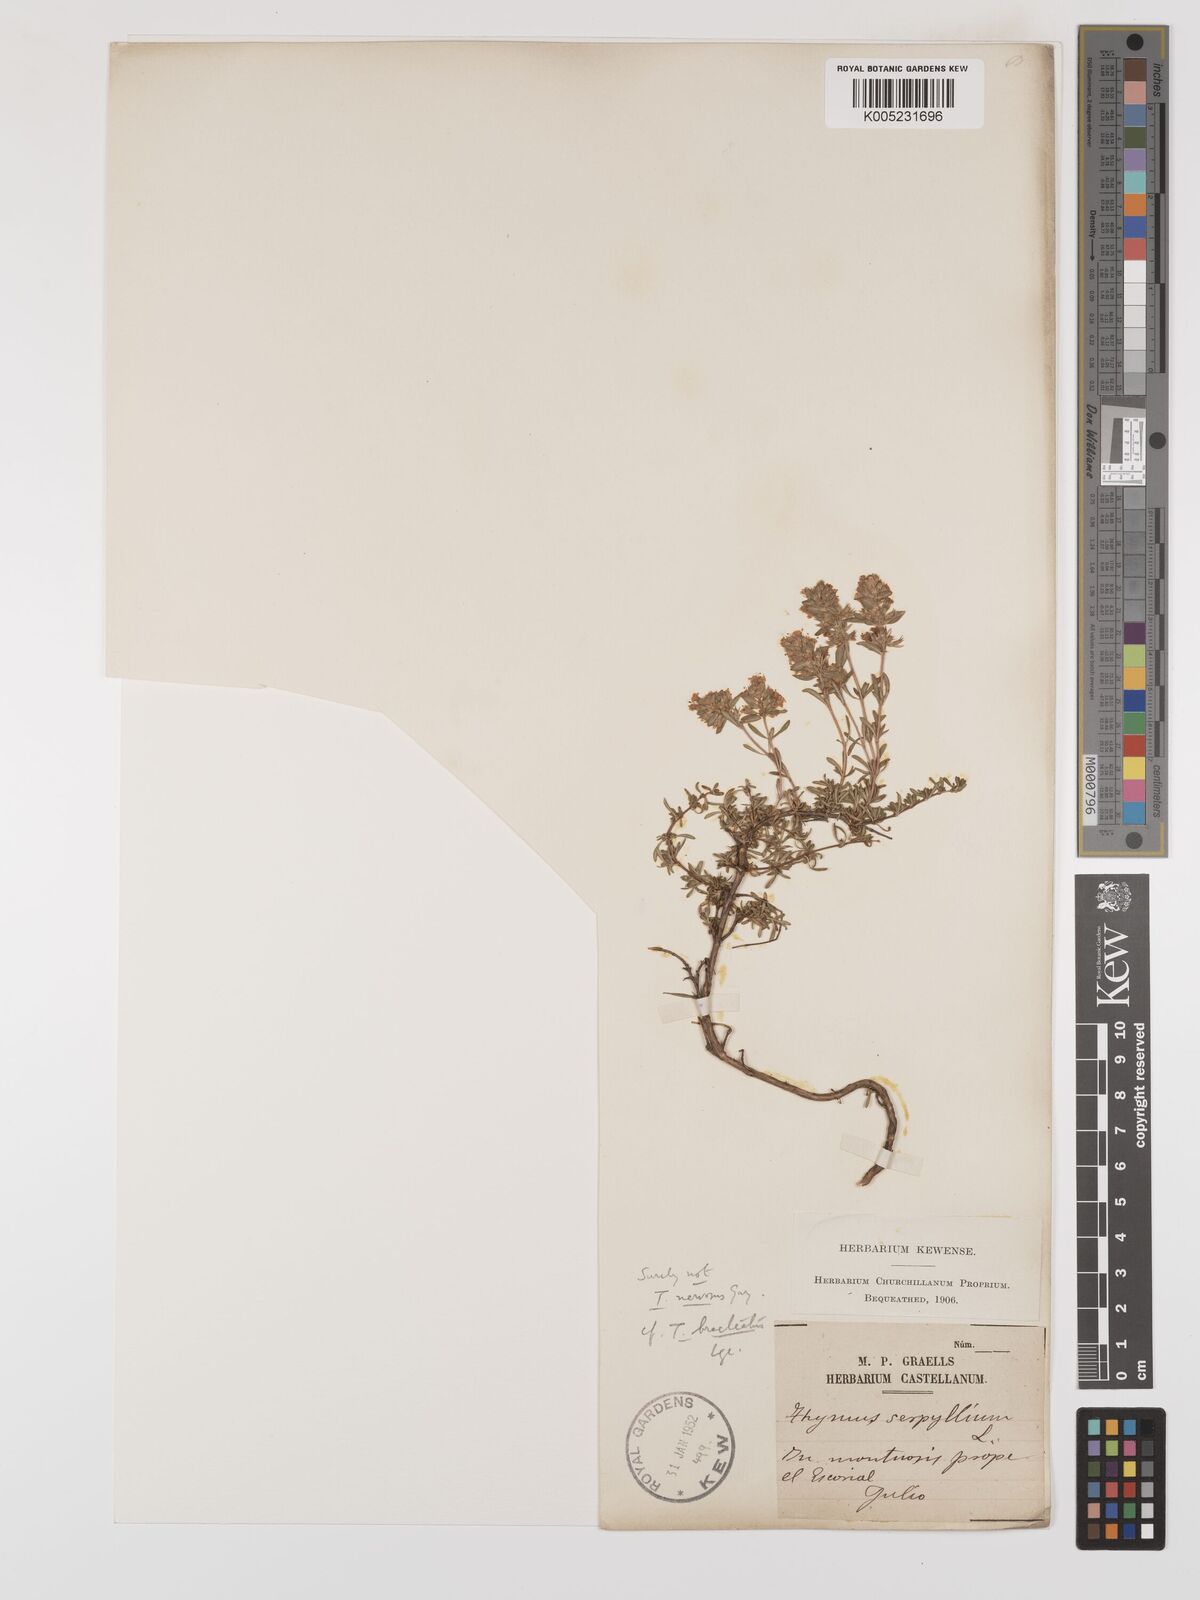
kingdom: Plantae
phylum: Tracheophyta
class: Magnoliopsida
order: Lamiales
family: Lamiaceae
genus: Thymus
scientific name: Thymus bracteatus
